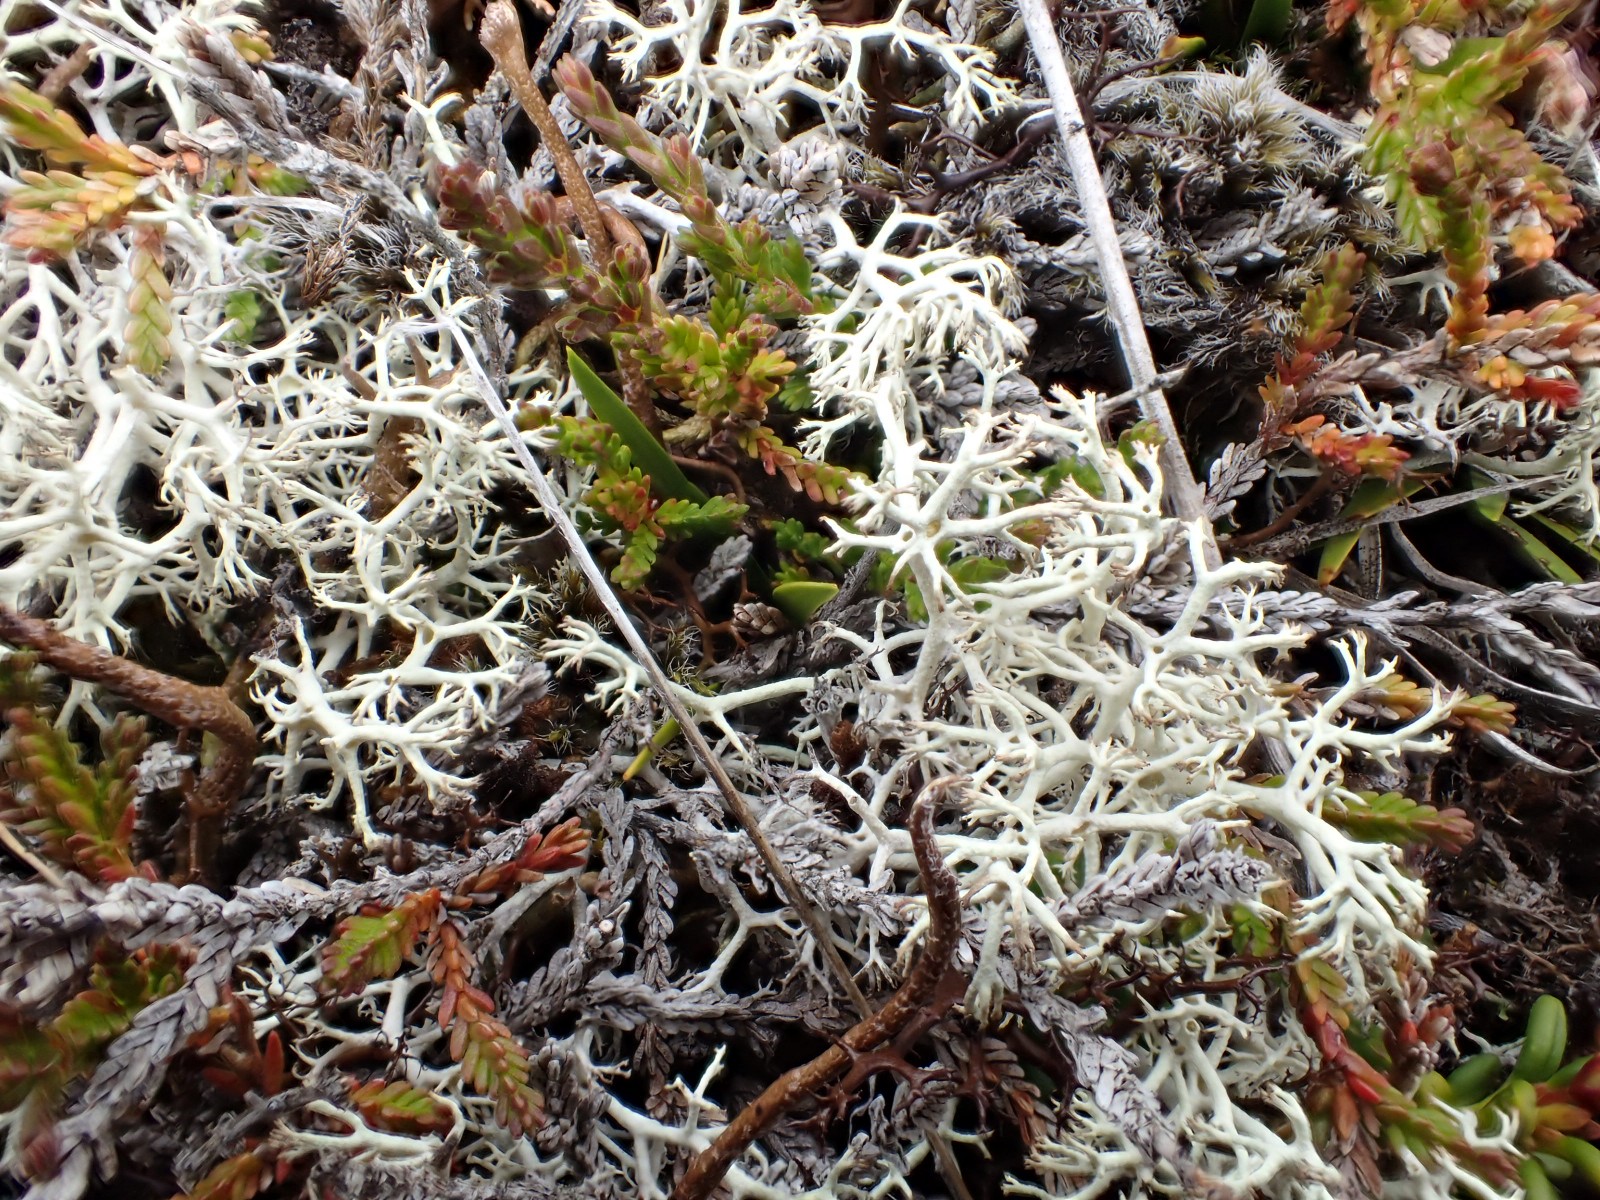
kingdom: Fungi
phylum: Ascomycota
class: Lecanoromycetes
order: Lecanorales
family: Cladoniaceae
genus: Cladonia
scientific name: Cladonia portentosa
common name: hede-rensdyrlav
